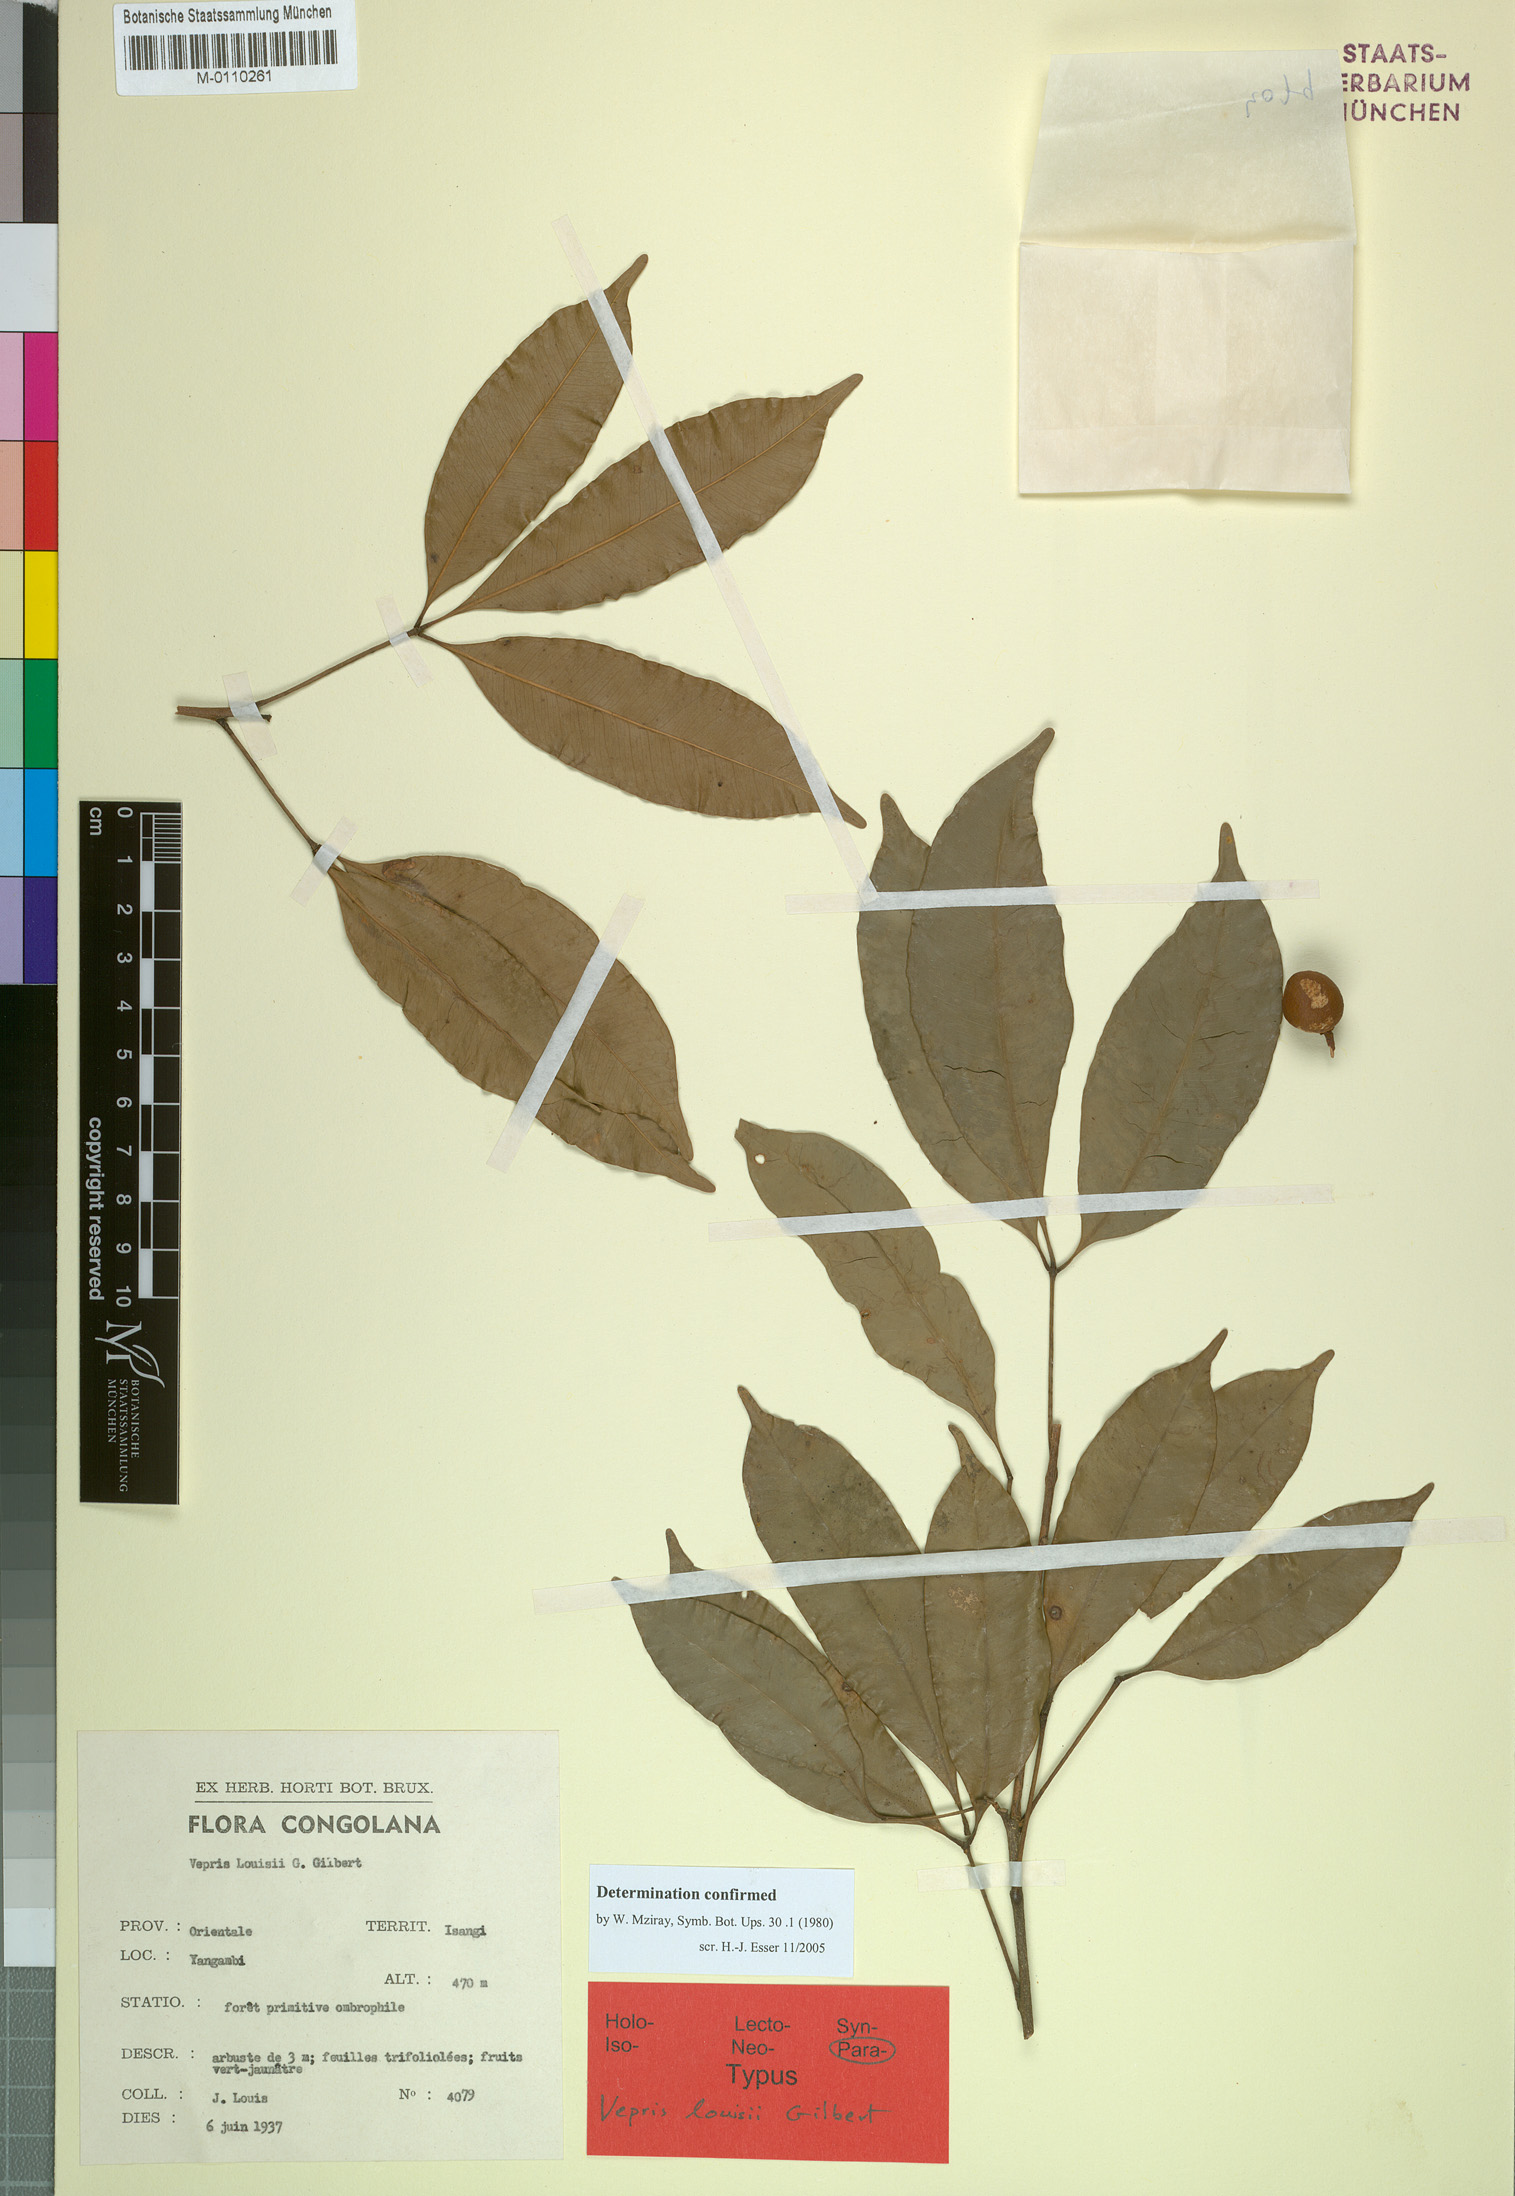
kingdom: Plantae
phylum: Tracheophyta
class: Magnoliopsida
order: Sapindales
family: Rutaceae
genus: Vepris
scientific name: Vepris louisii
